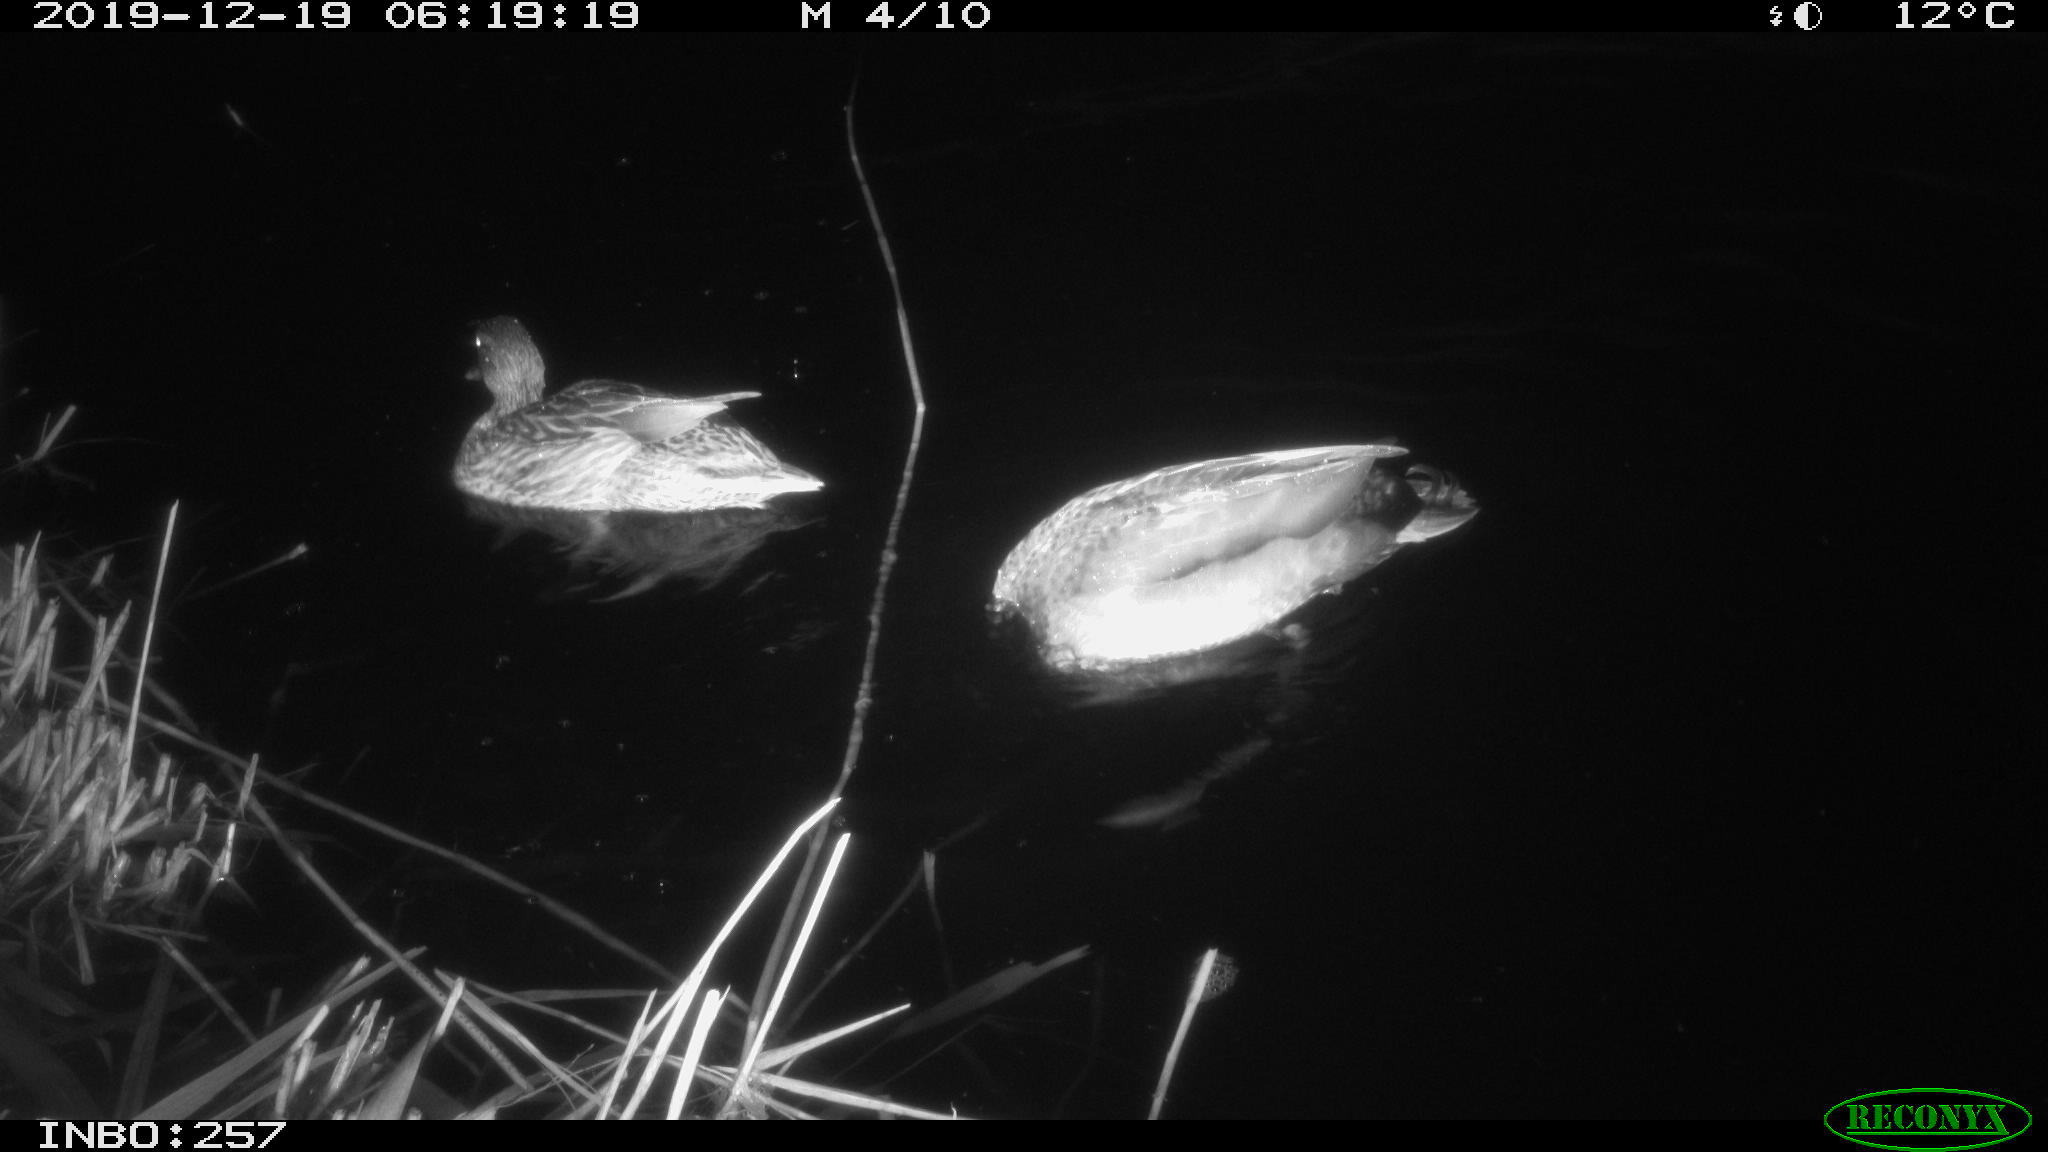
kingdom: Animalia
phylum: Chordata
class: Aves
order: Anseriformes
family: Anatidae
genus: Anas
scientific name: Anas platyrhynchos
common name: Mallard
